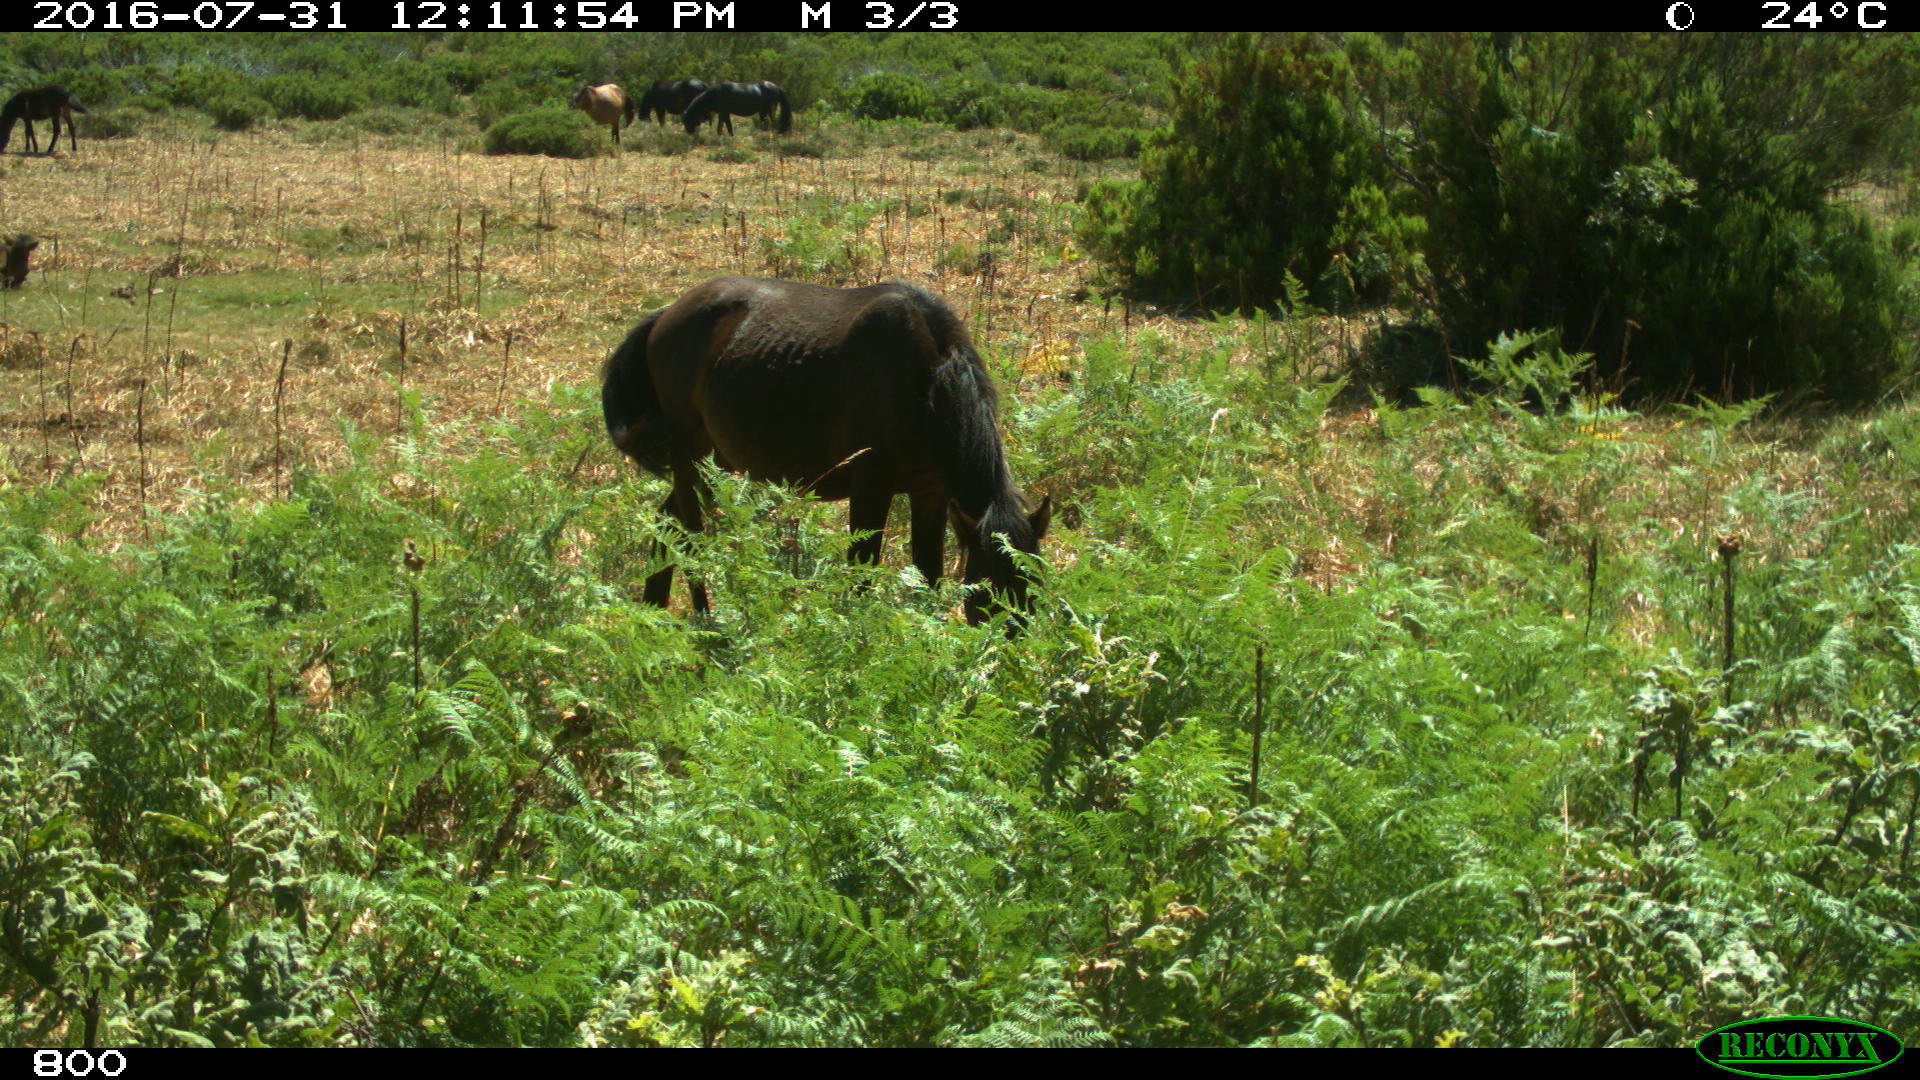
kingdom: Animalia
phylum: Chordata
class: Mammalia
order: Perissodactyla
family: Equidae
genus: Equus
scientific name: Equus caballus
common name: Horse
